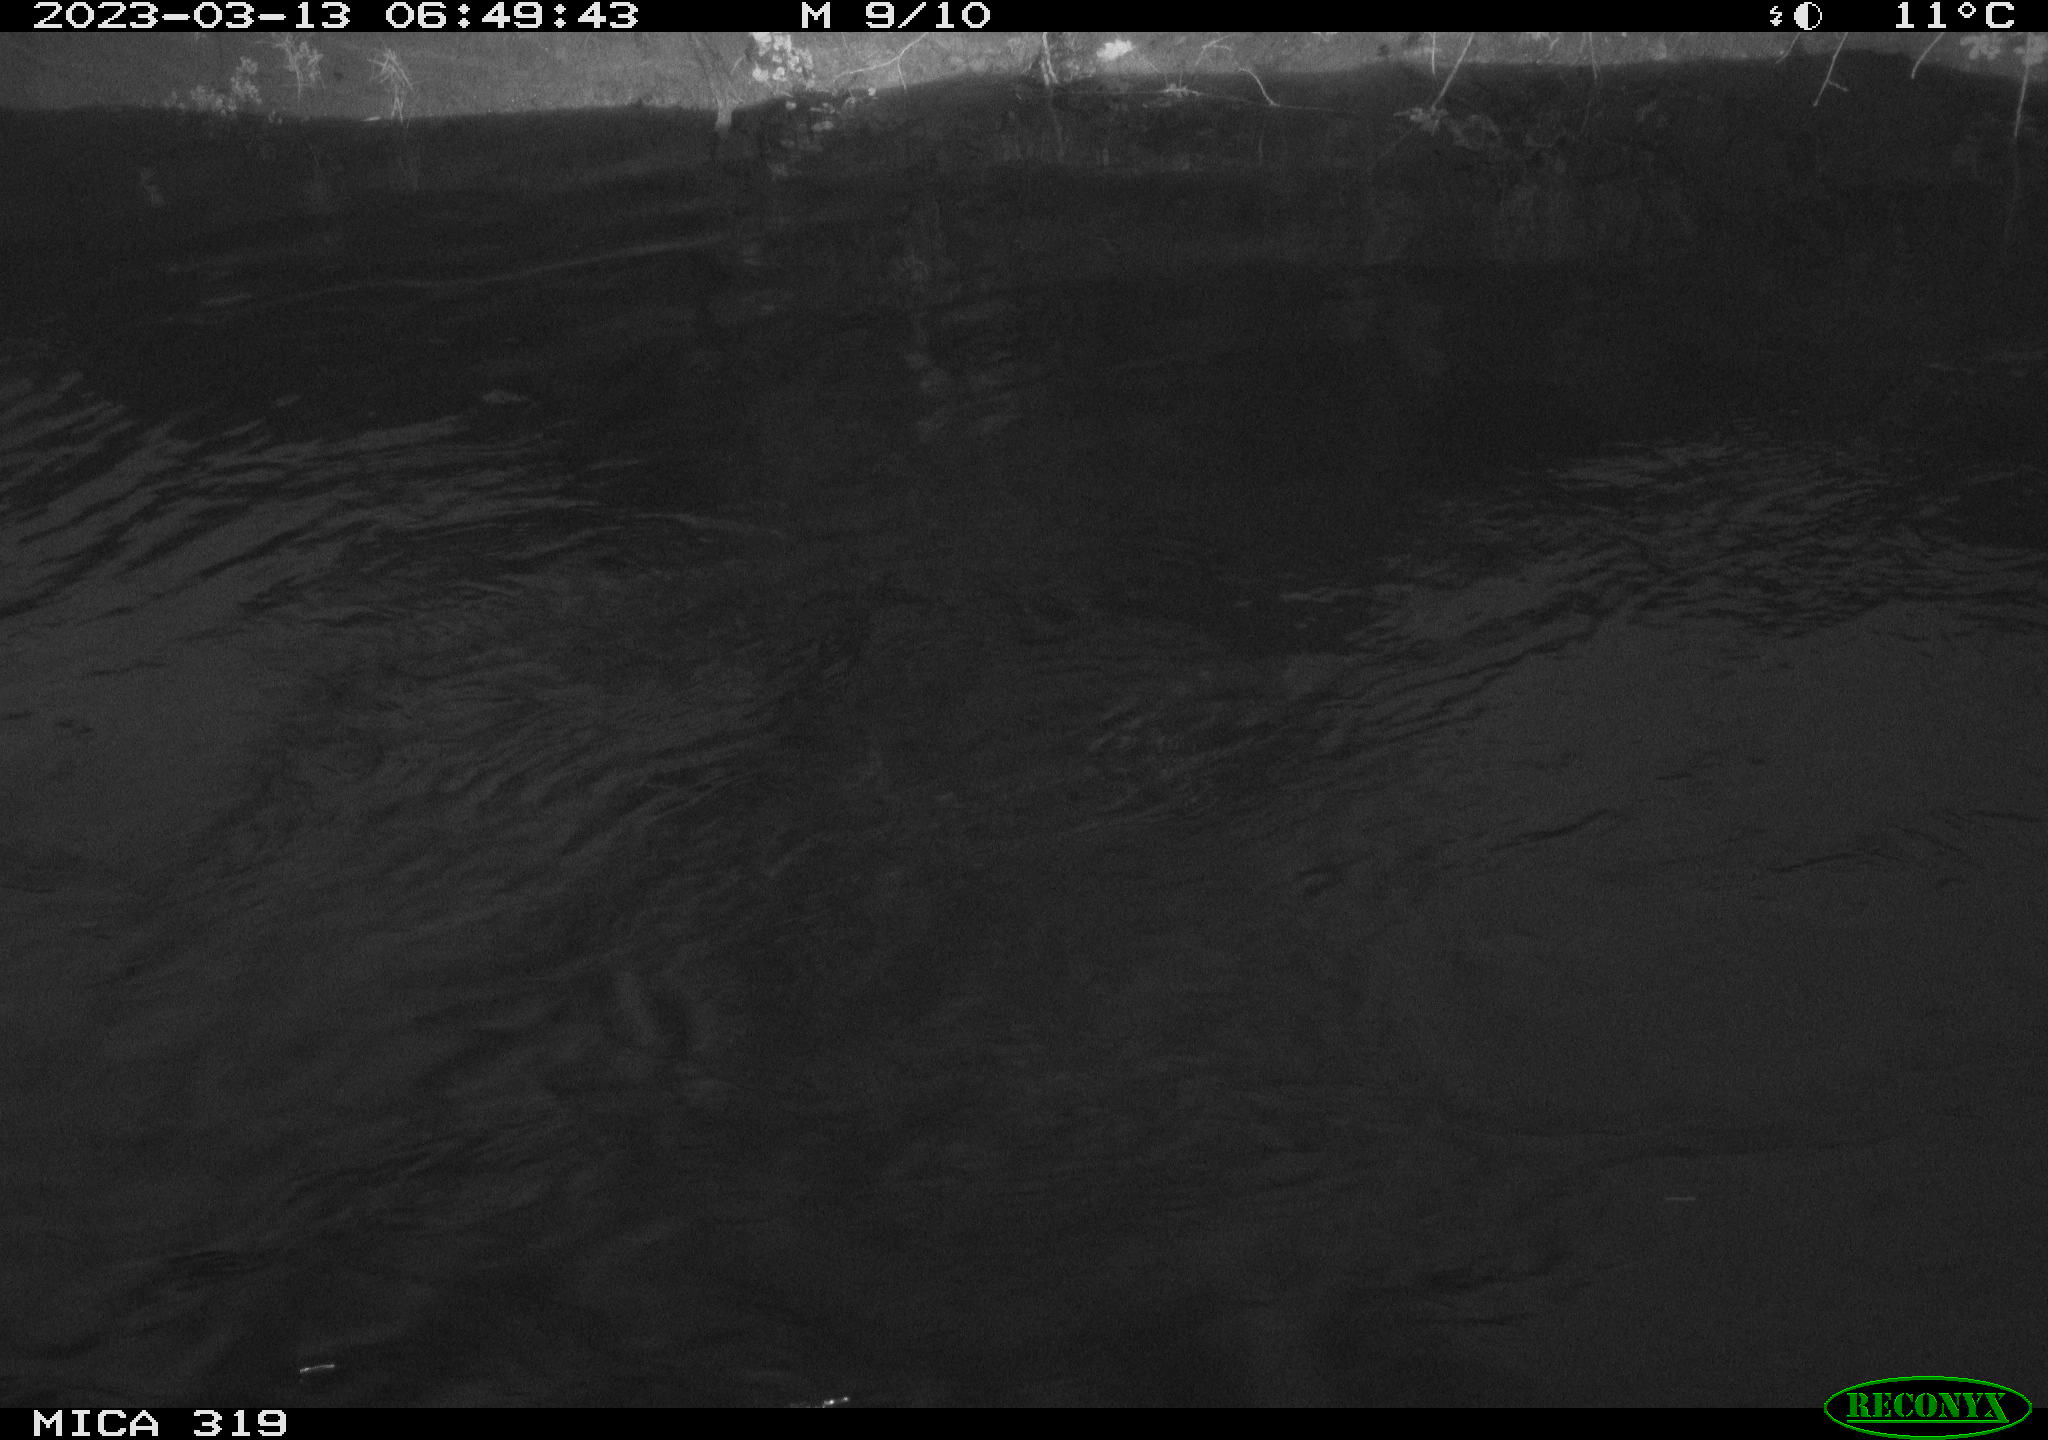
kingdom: Animalia
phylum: Chordata
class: Aves
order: Anseriformes
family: Anatidae
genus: Anas
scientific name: Anas
